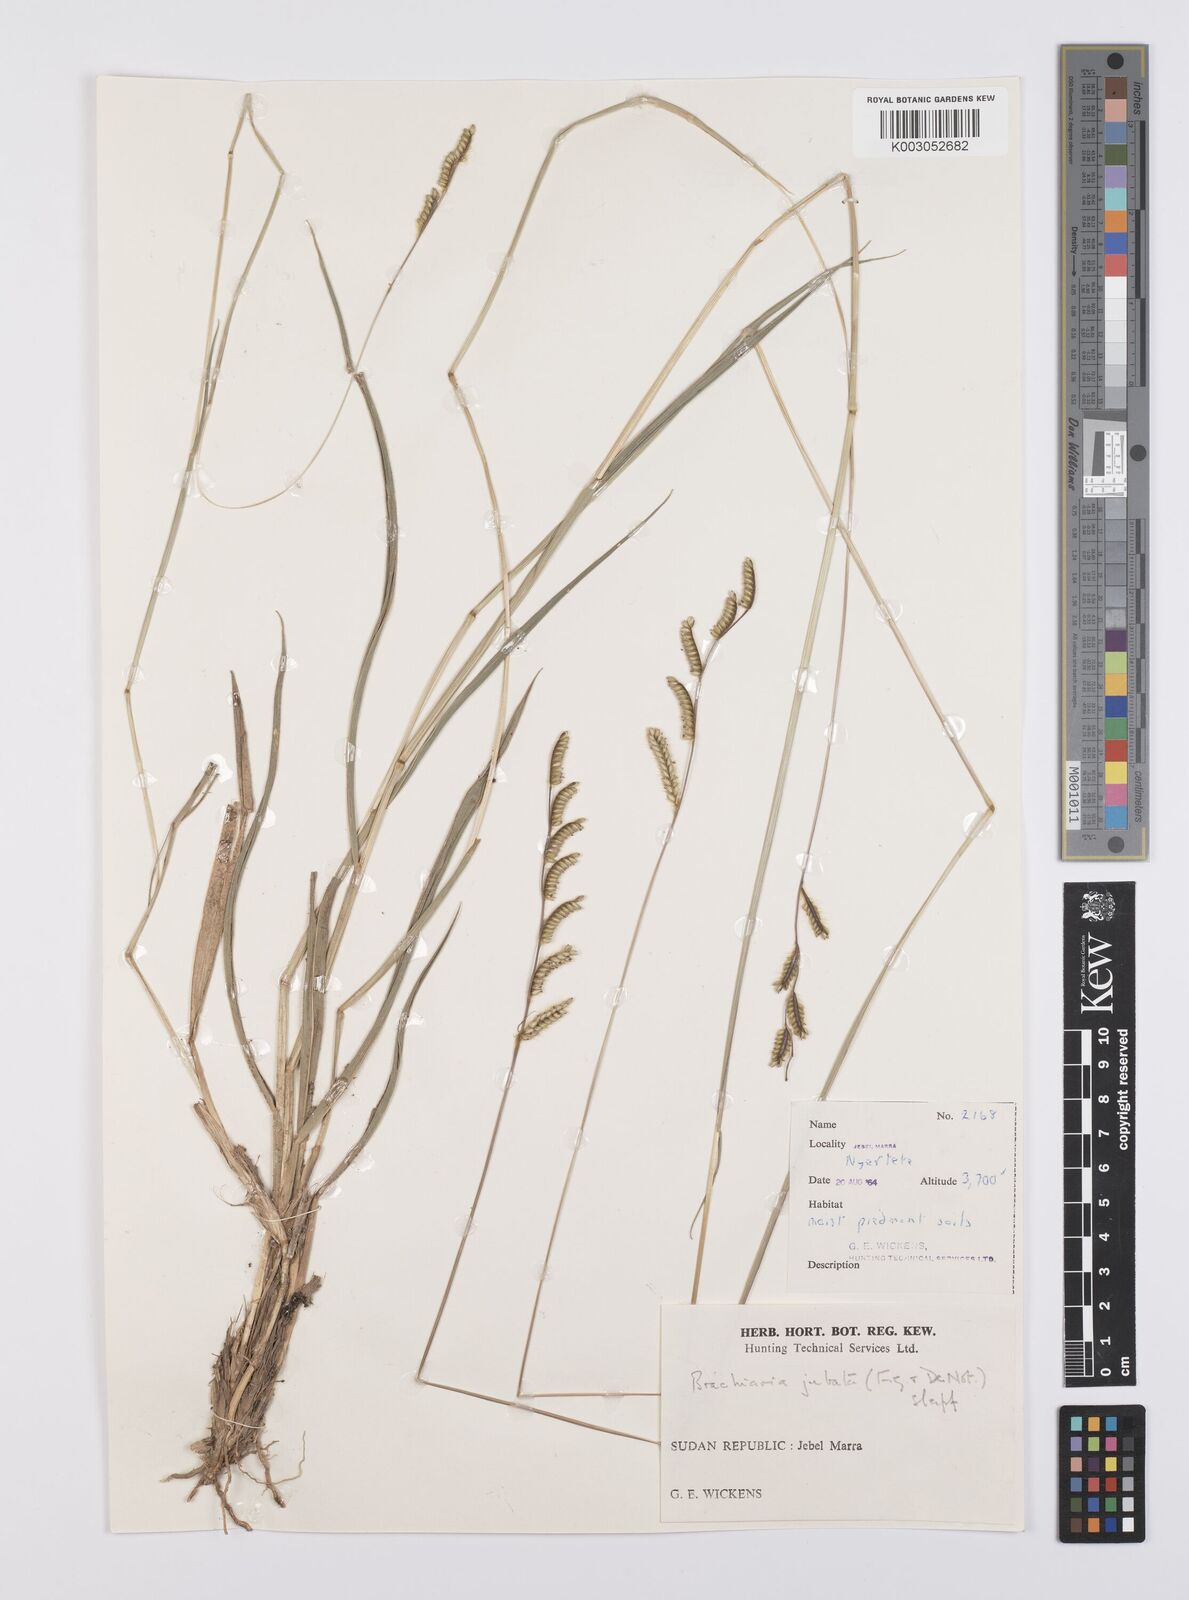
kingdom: Plantae
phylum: Tracheophyta
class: Liliopsida
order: Poales
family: Poaceae
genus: Urochloa
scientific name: Urochloa jubata
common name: Buffalograss
